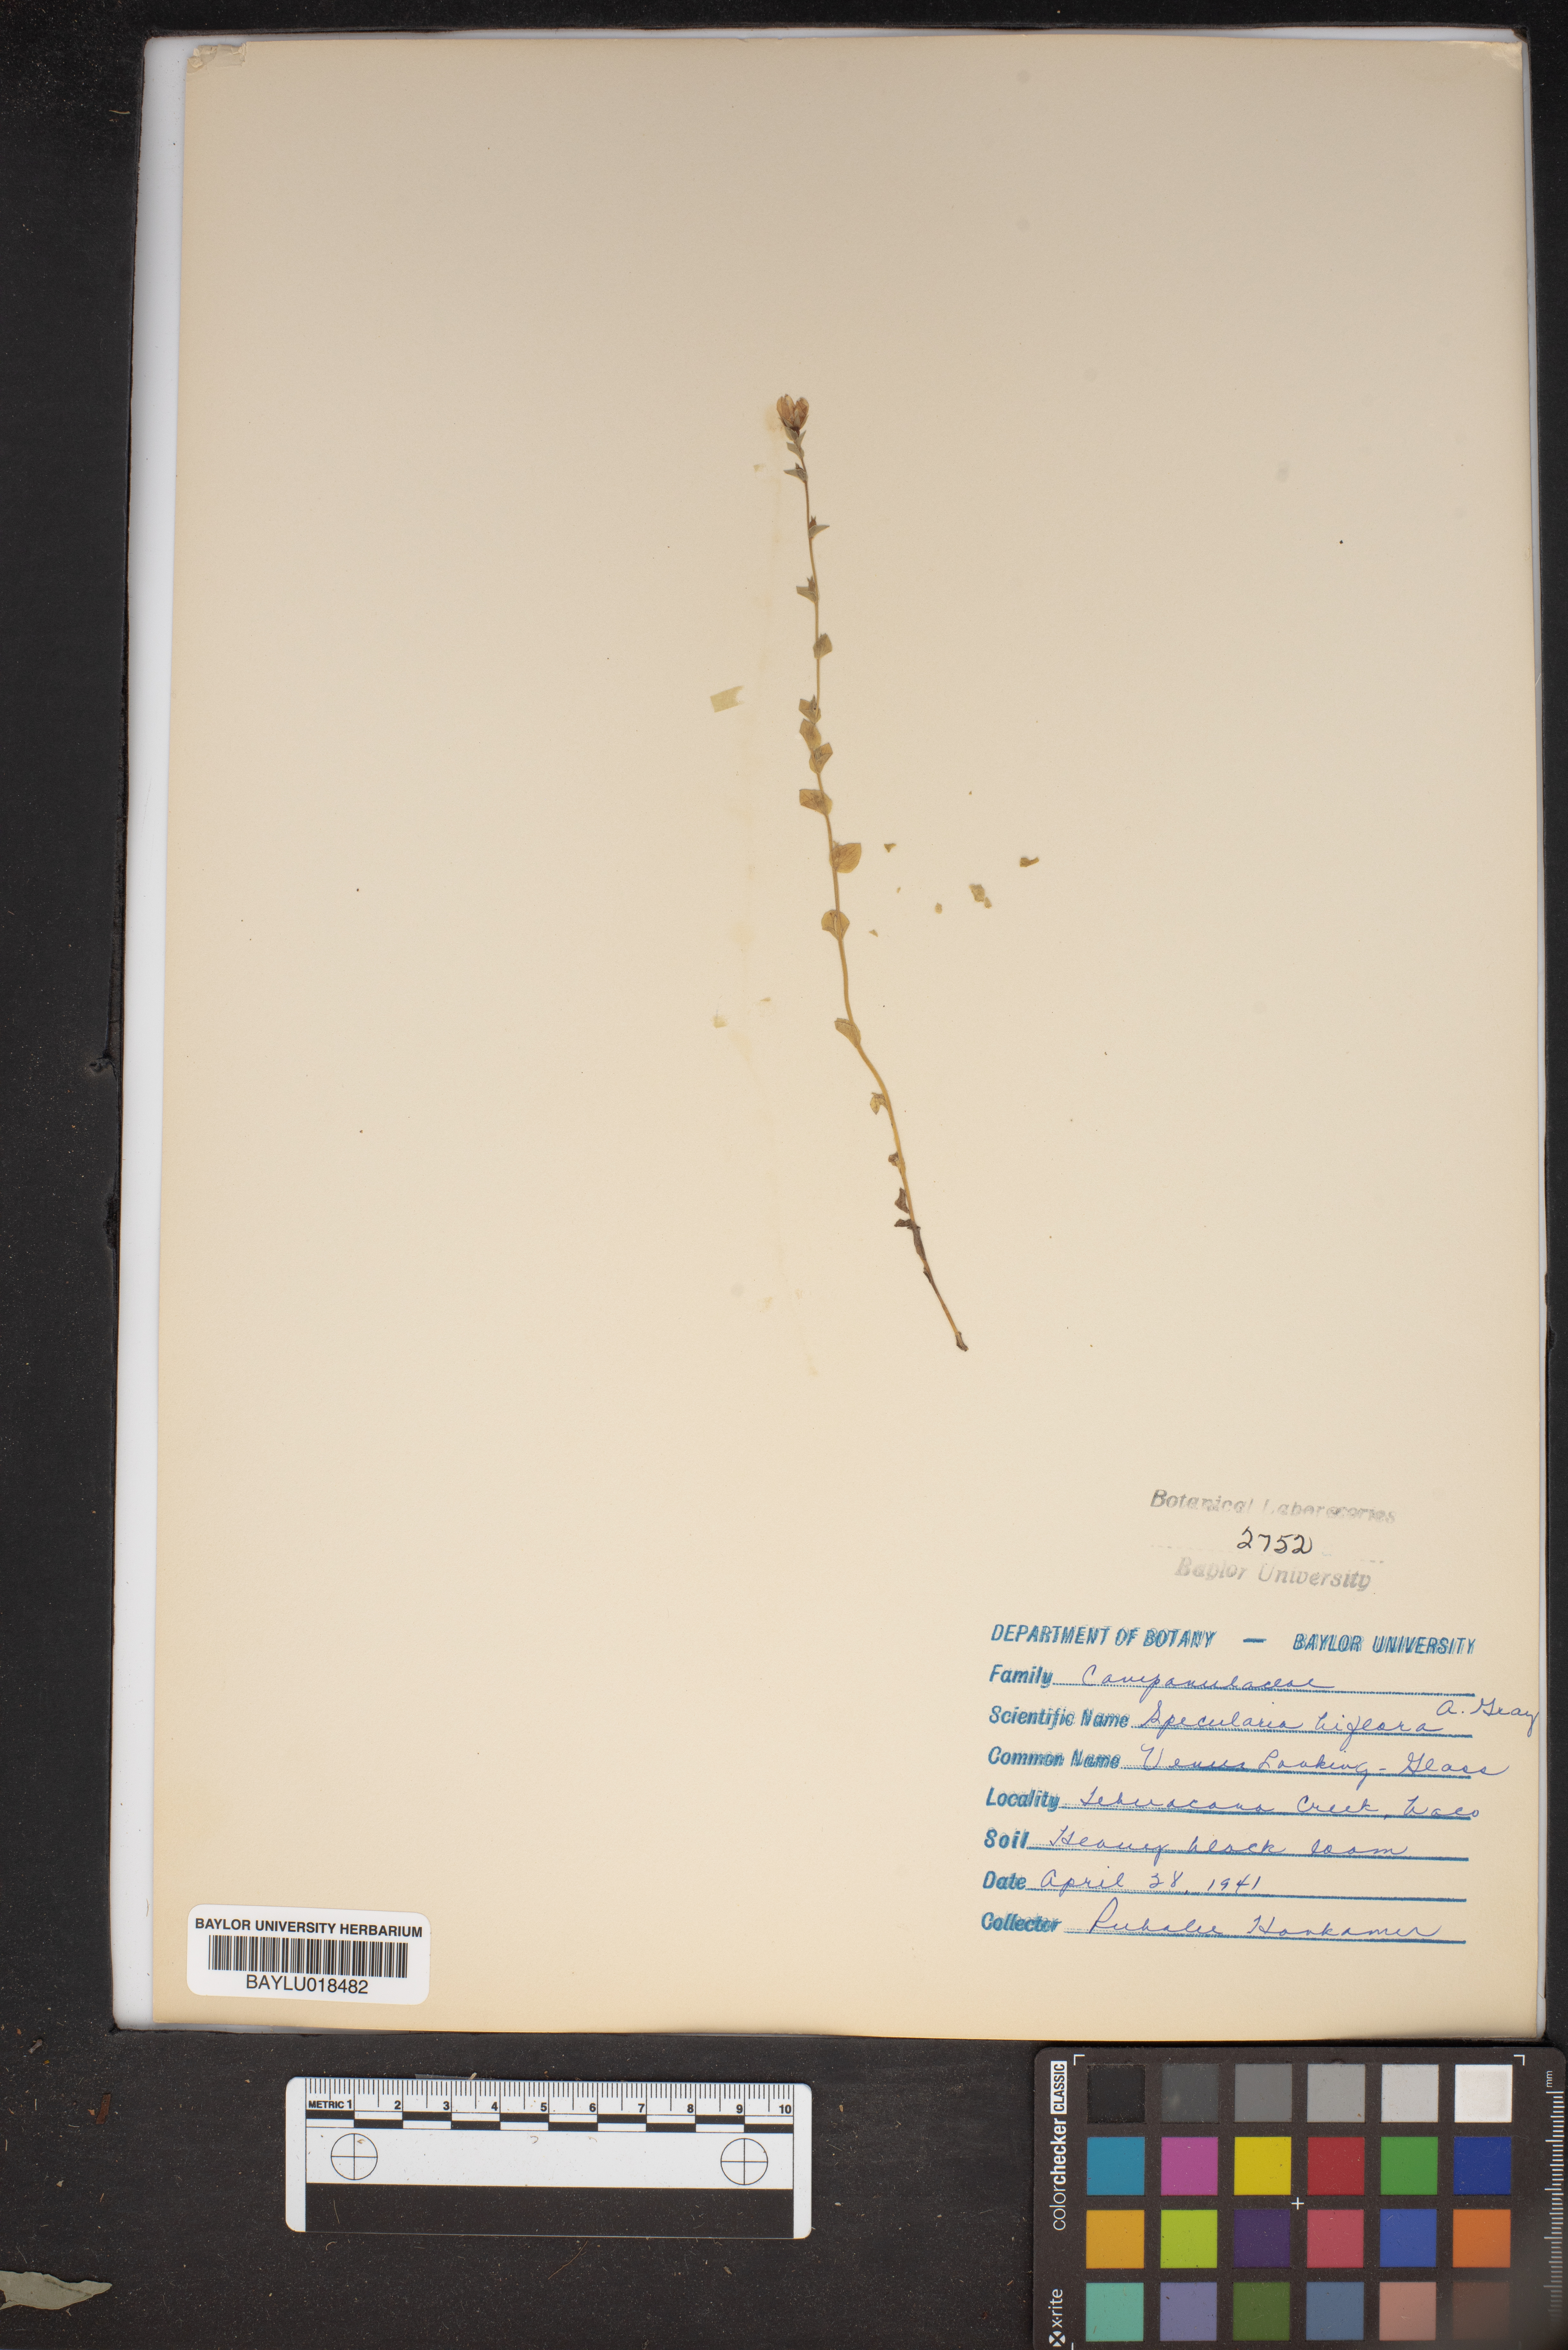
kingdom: Plantae
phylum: Tracheophyta
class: Magnoliopsida
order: Asterales
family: Campanulaceae
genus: Triodanis
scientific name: Triodanis perfoliata
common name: Clasping venus' looking-glass
